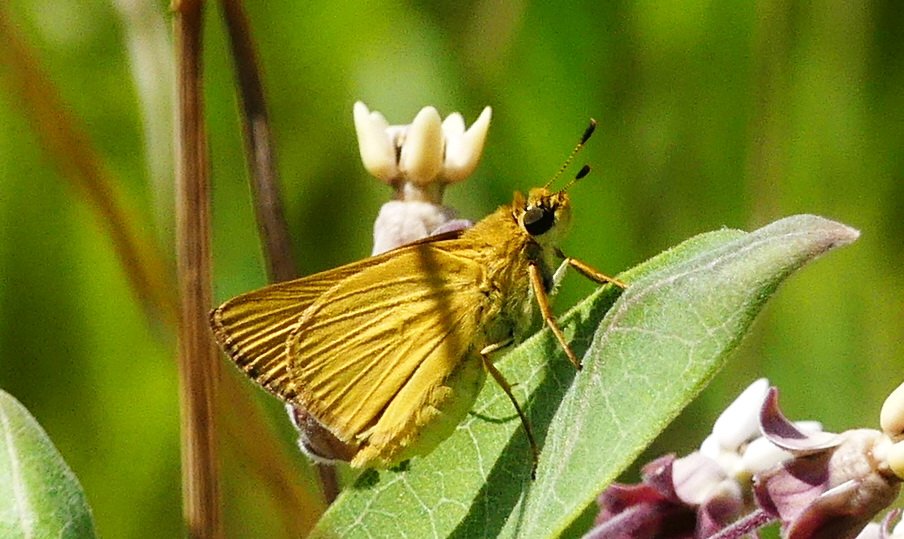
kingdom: Animalia
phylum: Arthropoda
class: Insecta
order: Lepidoptera
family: Hesperiidae
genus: Atrytone
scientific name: Atrytone delaware
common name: Delaware Skipper
